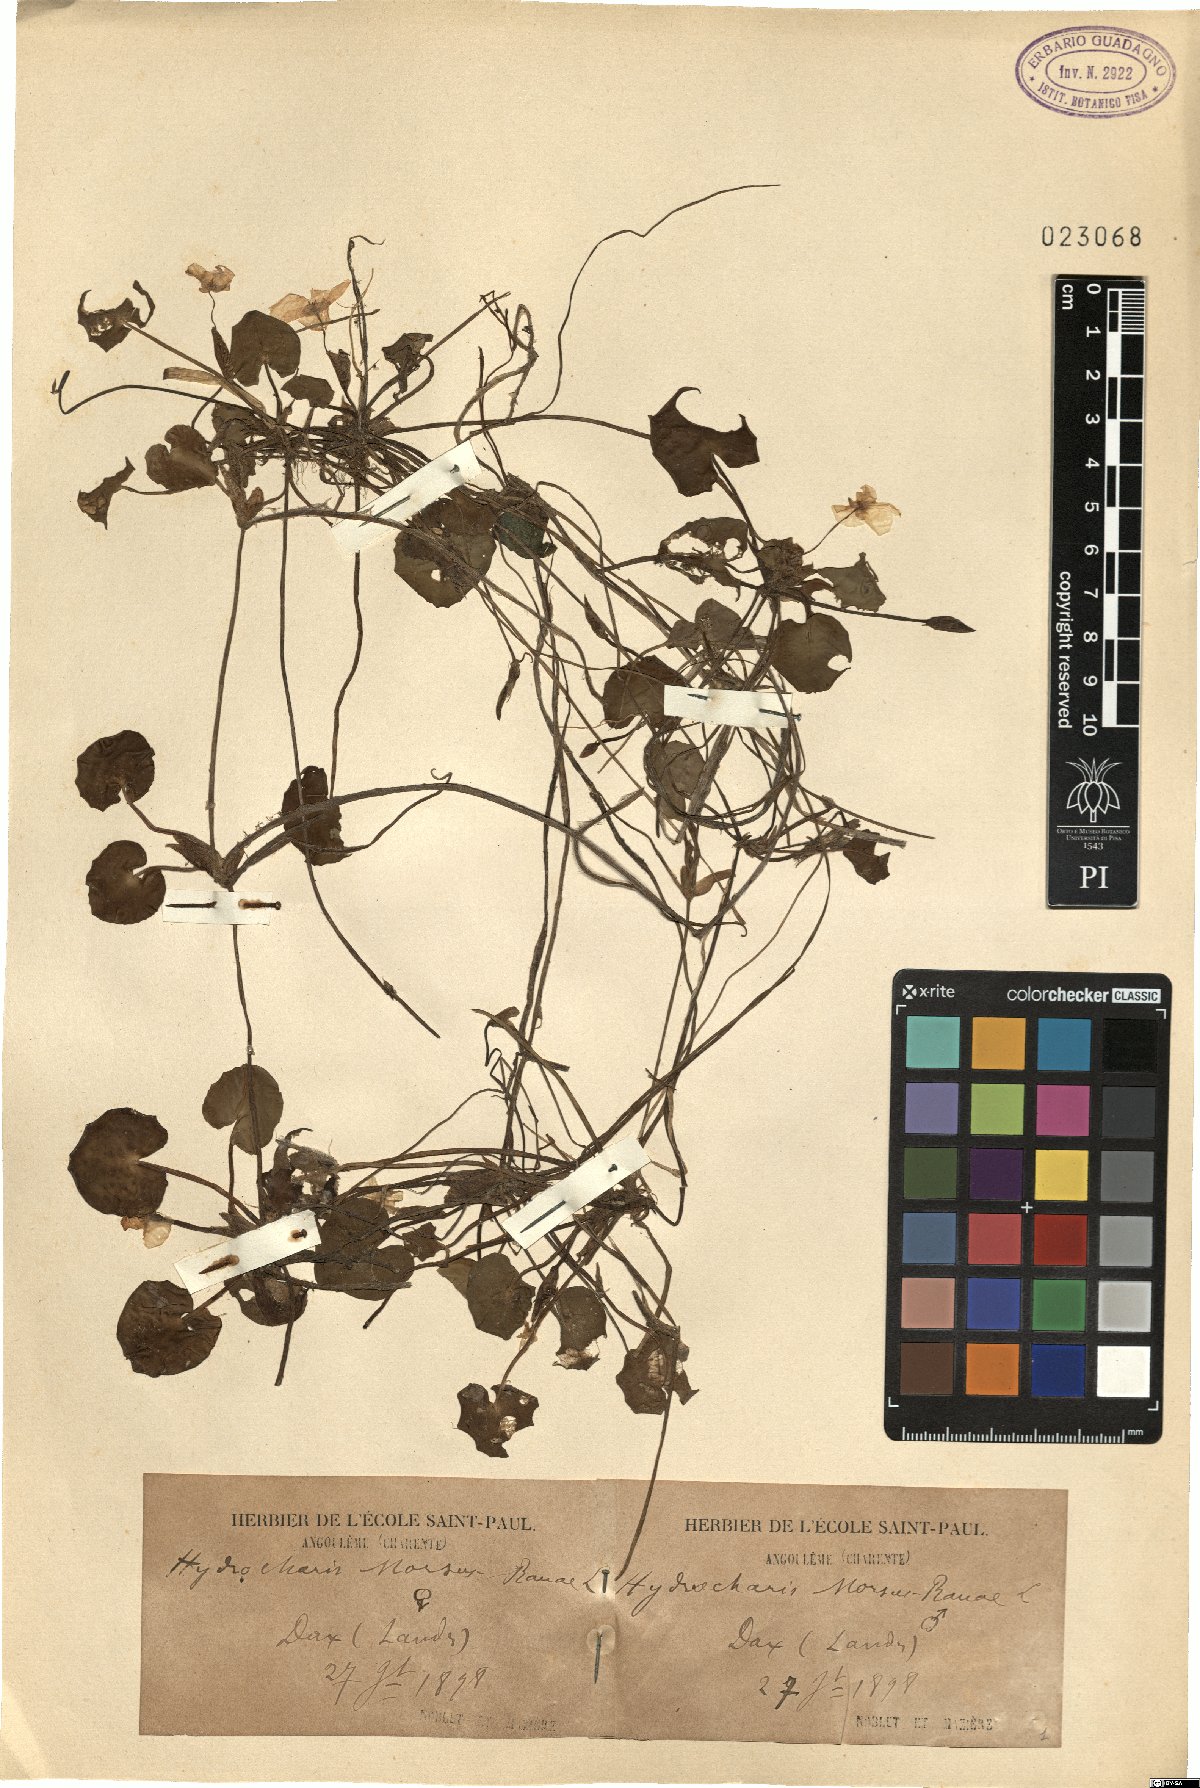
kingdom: Plantae
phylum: Tracheophyta
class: Liliopsida
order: Alismatales
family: Hydrocharitaceae
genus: Hydrocharis
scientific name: Hydrocharis morsus-ranae
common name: Frogbit
